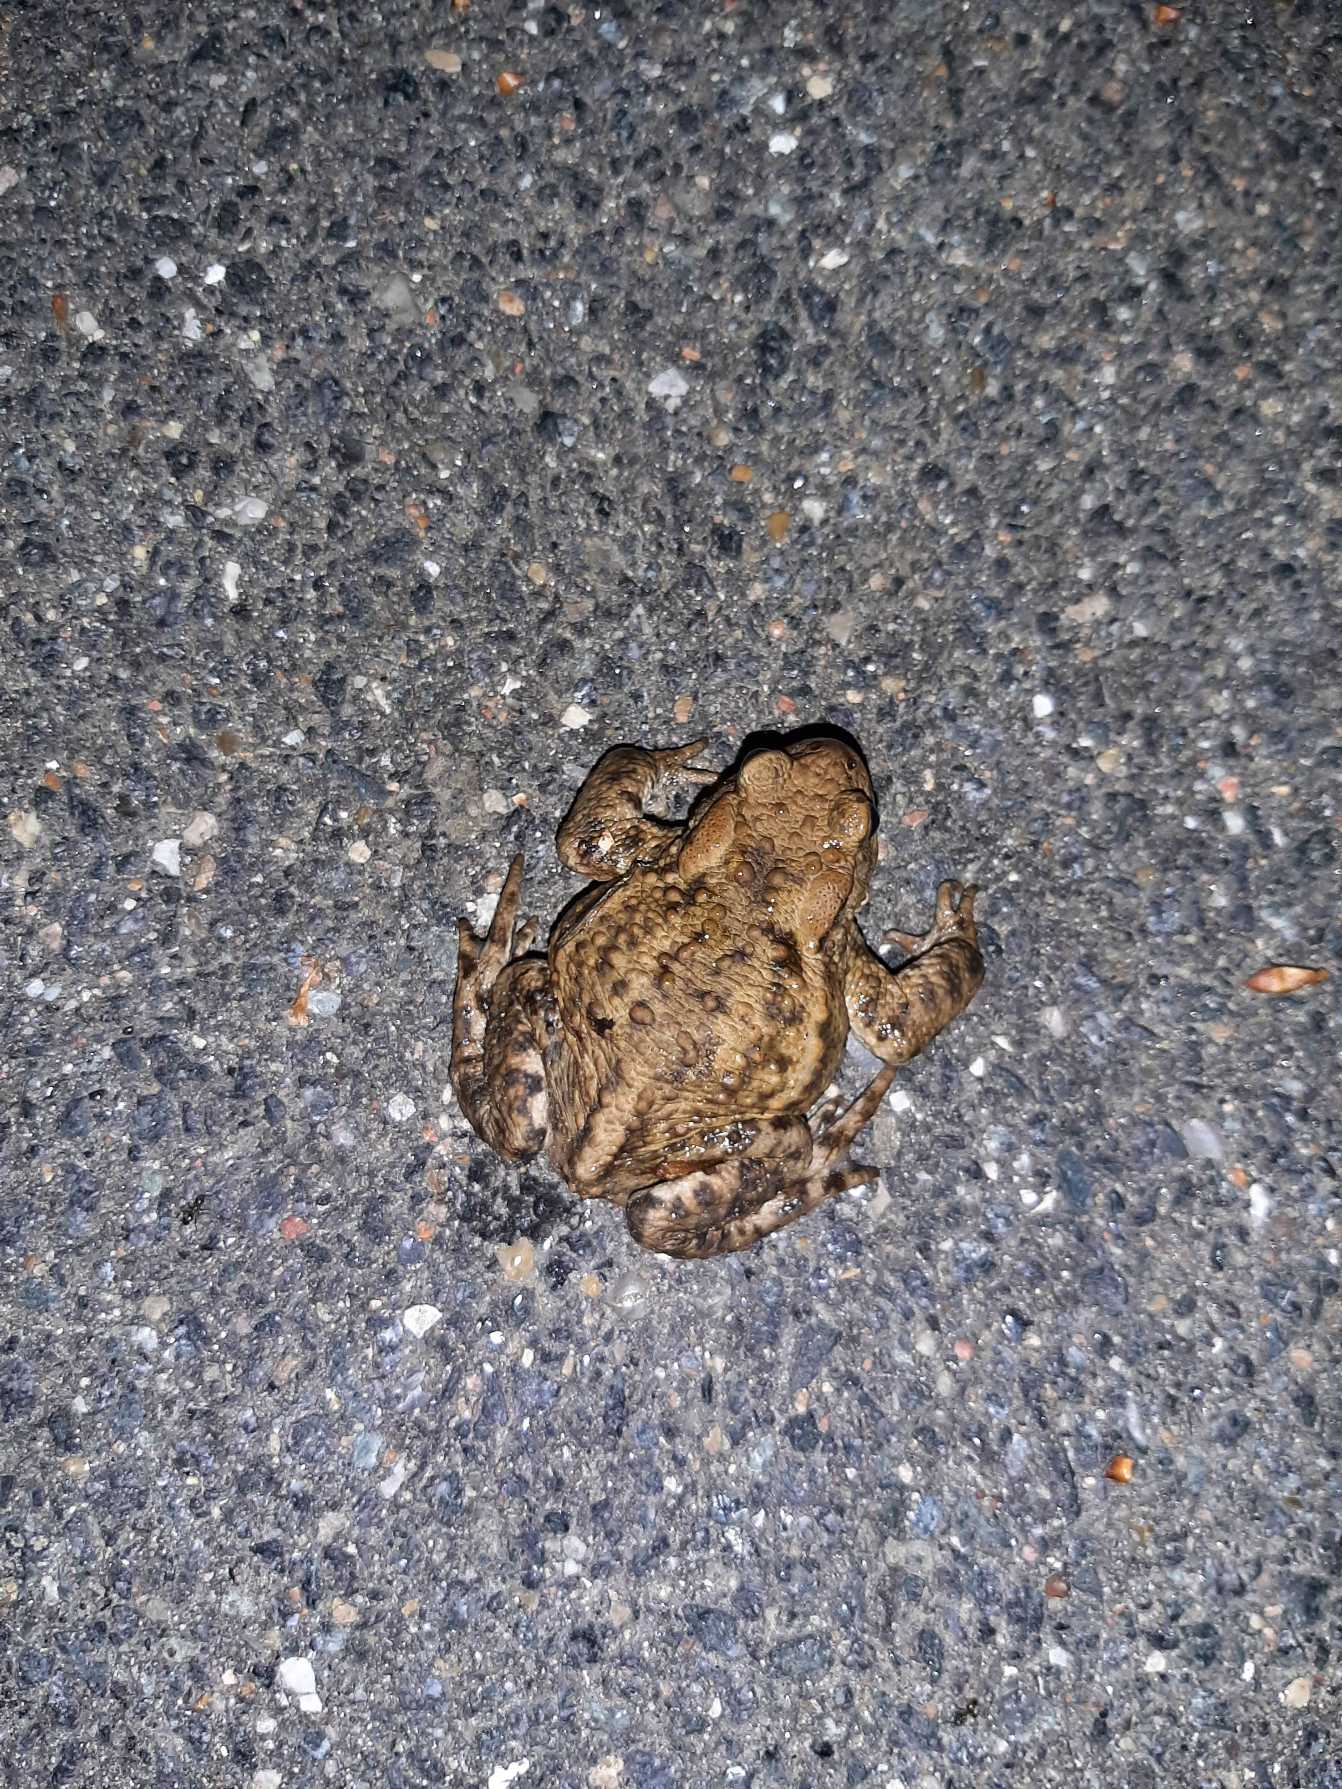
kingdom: Animalia
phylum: Chordata
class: Amphibia
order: Anura
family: Bufonidae
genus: Bufo
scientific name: Bufo bufo
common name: Skrubtudse
